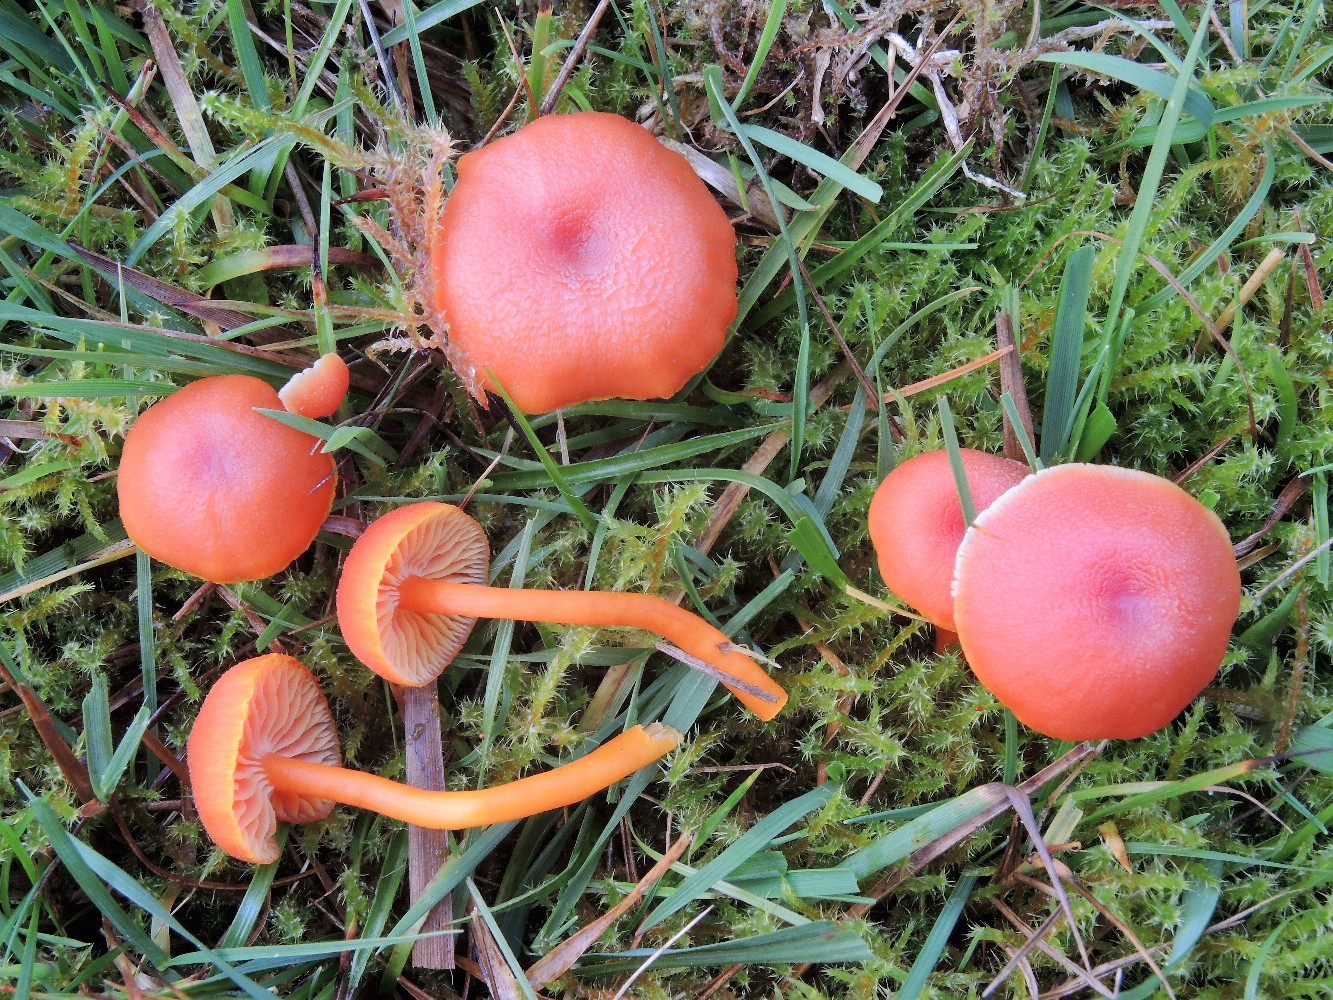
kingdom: Fungi
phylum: Basidiomycota
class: Agaricomycetes
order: Agaricales
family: Hygrophoraceae
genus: Hygrocybe
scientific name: Hygrocybe miniata
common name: mønje-vokshat
